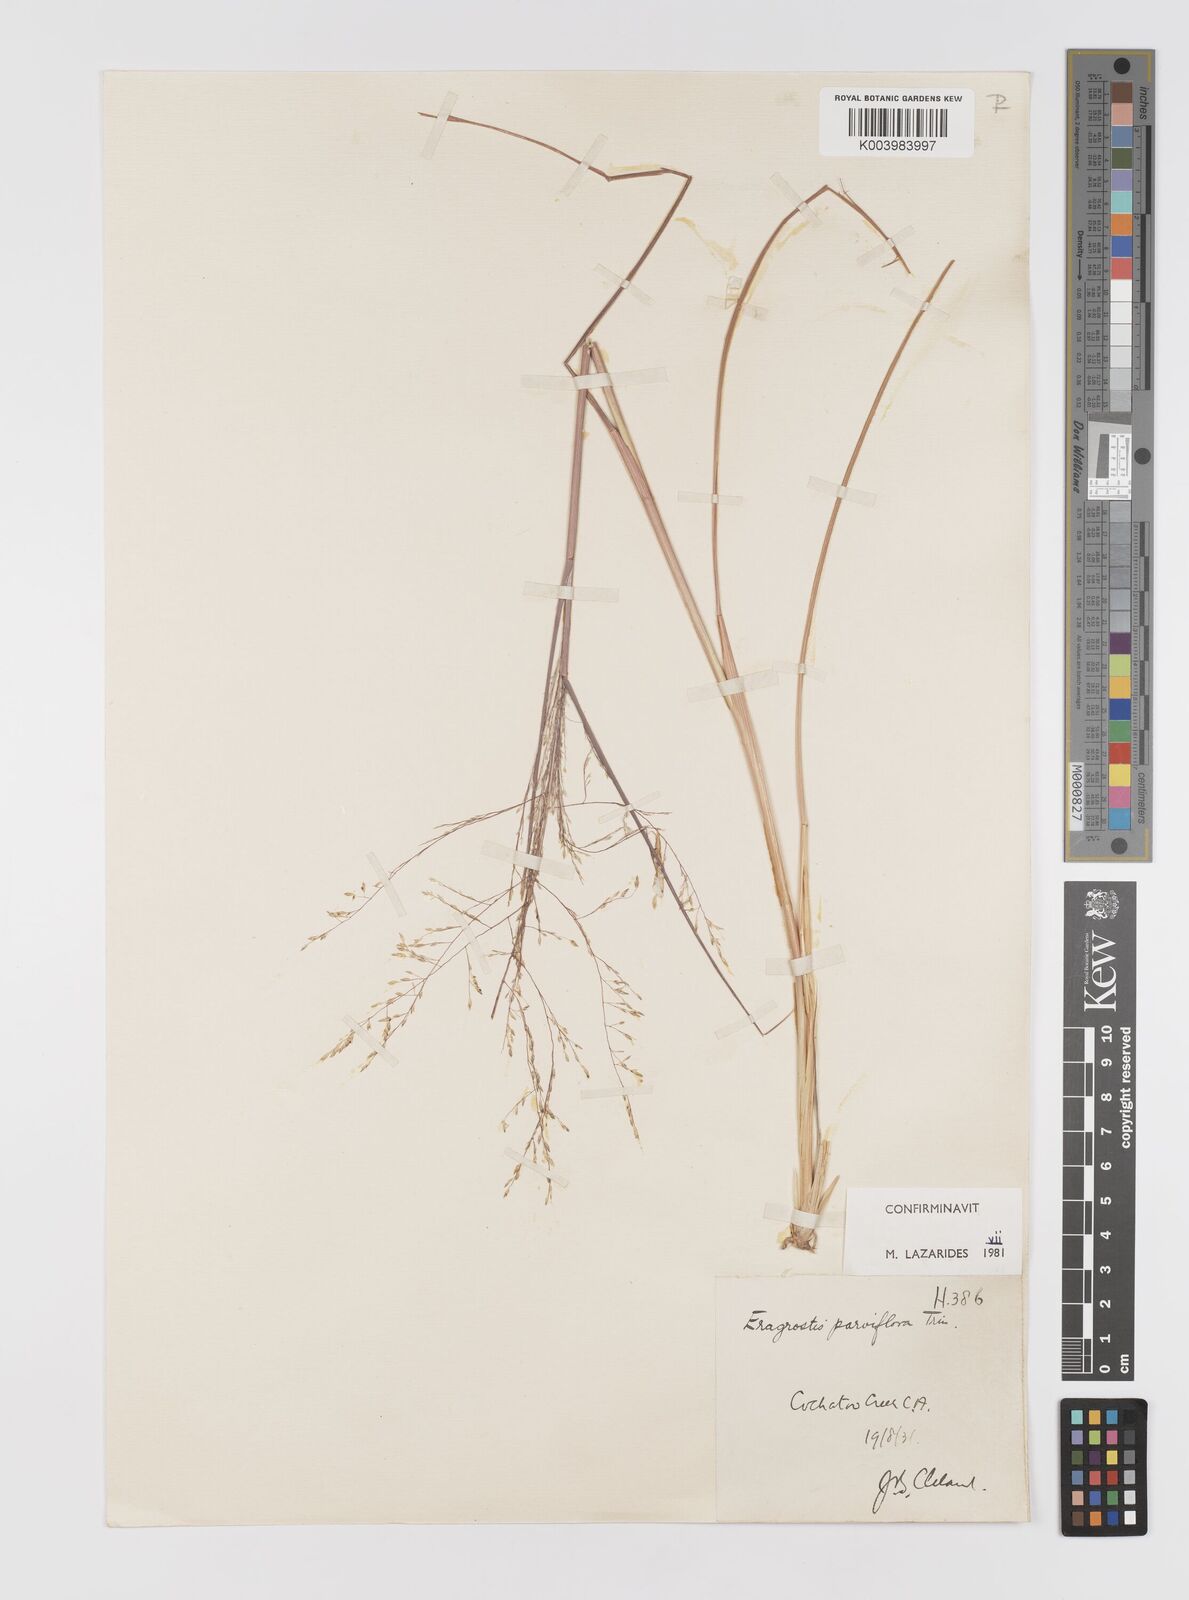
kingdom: Plantae
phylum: Tracheophyta
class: Liliopsida
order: Poales
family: Poaceae
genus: Eragrostis
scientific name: Eragrostis parviflora
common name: Weeping love-grass
